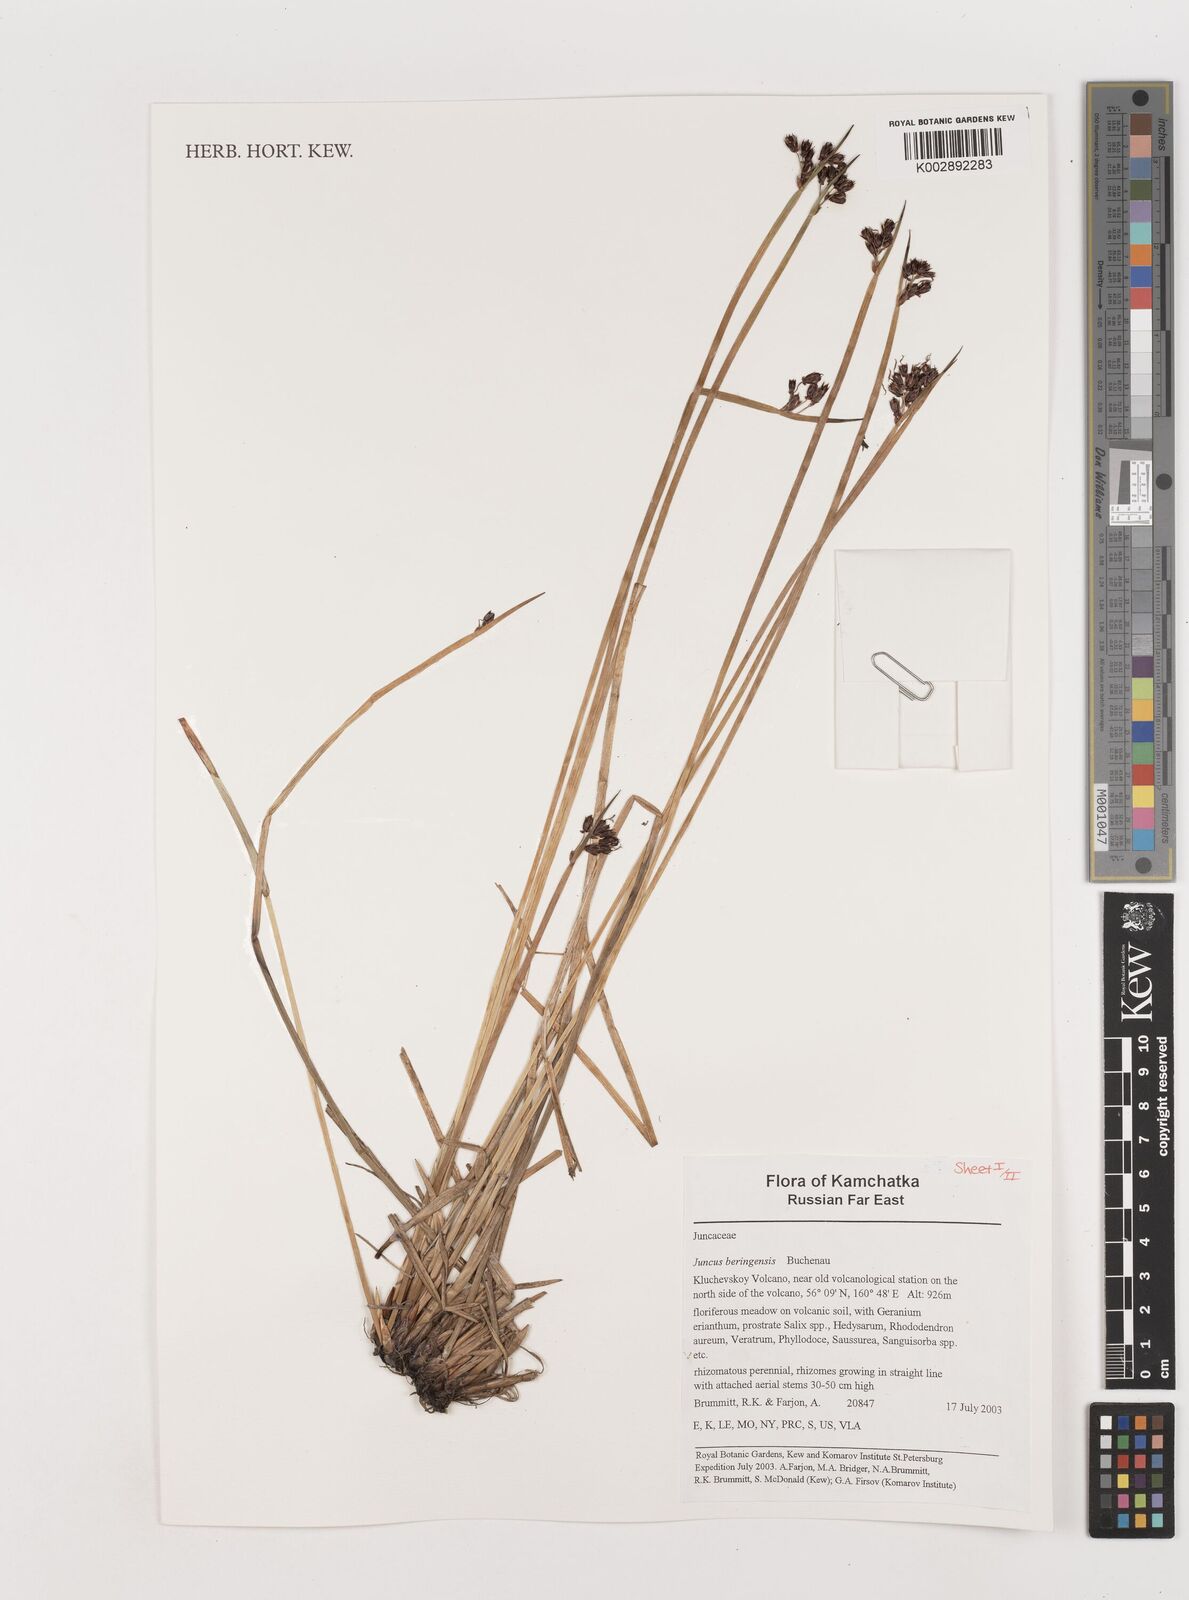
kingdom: Plantae
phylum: Tracheophyta
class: Liliopsida
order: Poales
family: Juncaceae
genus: Juncus
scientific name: Juncus beringensis
